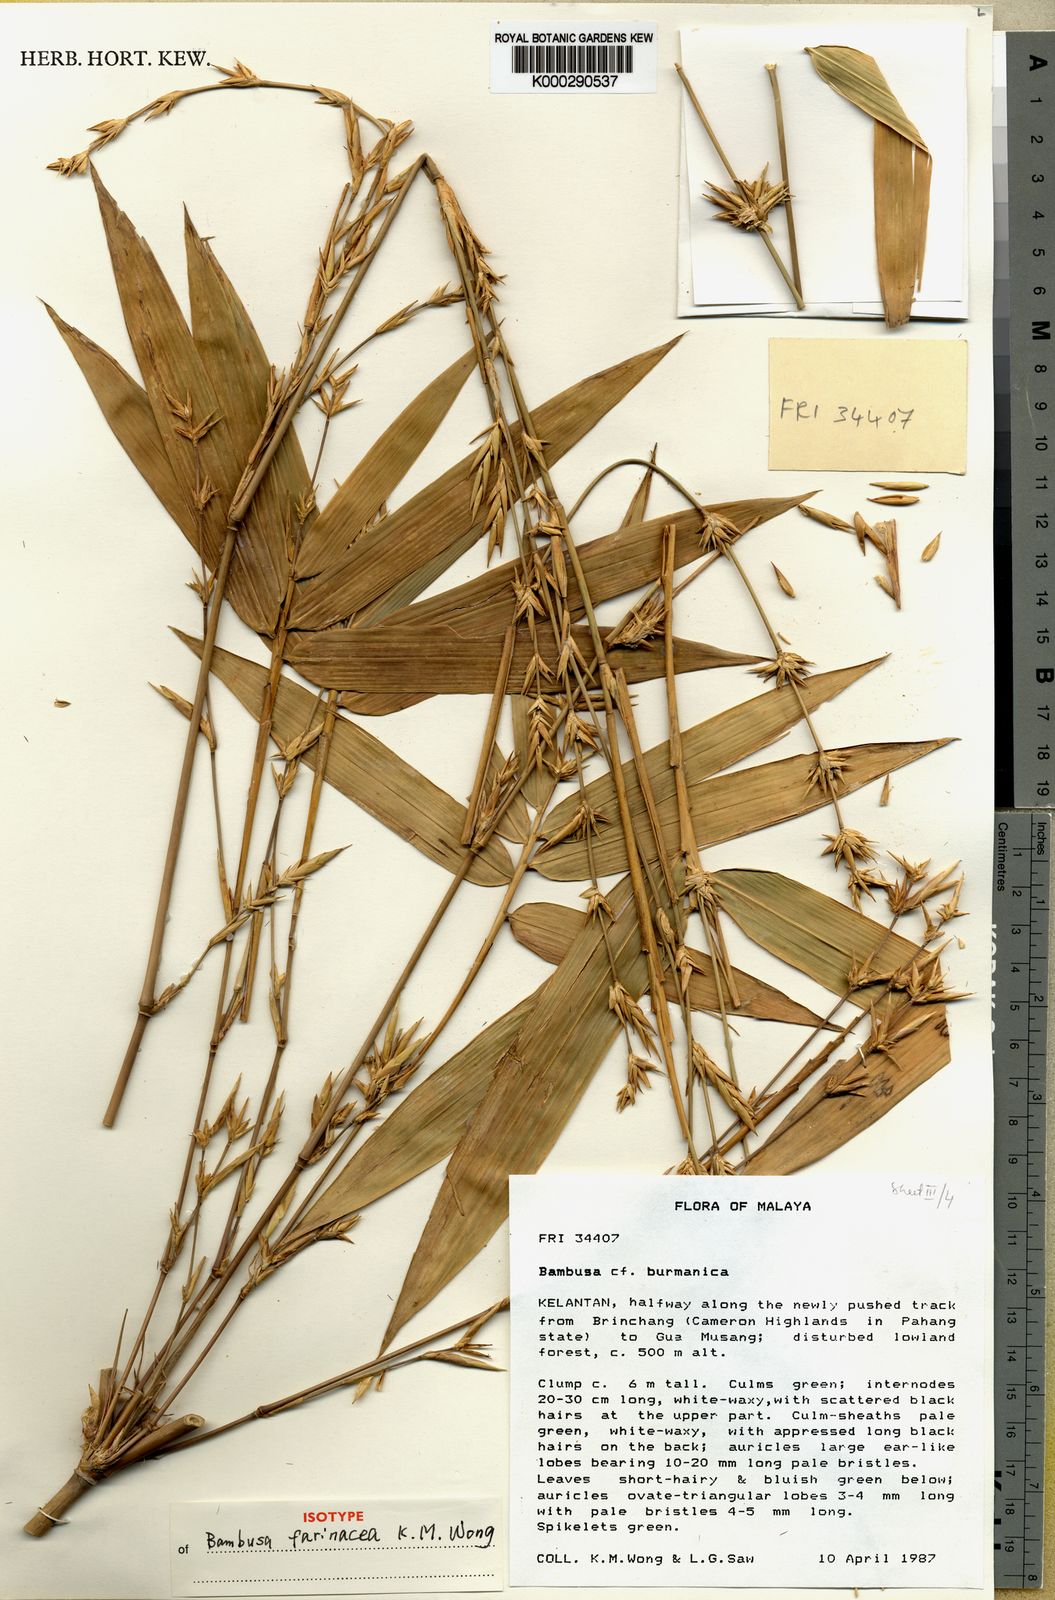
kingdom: Plantae
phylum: Tracheophyta
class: Liliopsida
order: Poales
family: Poaceae
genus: Bambusa
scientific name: Bambusa farinacea
